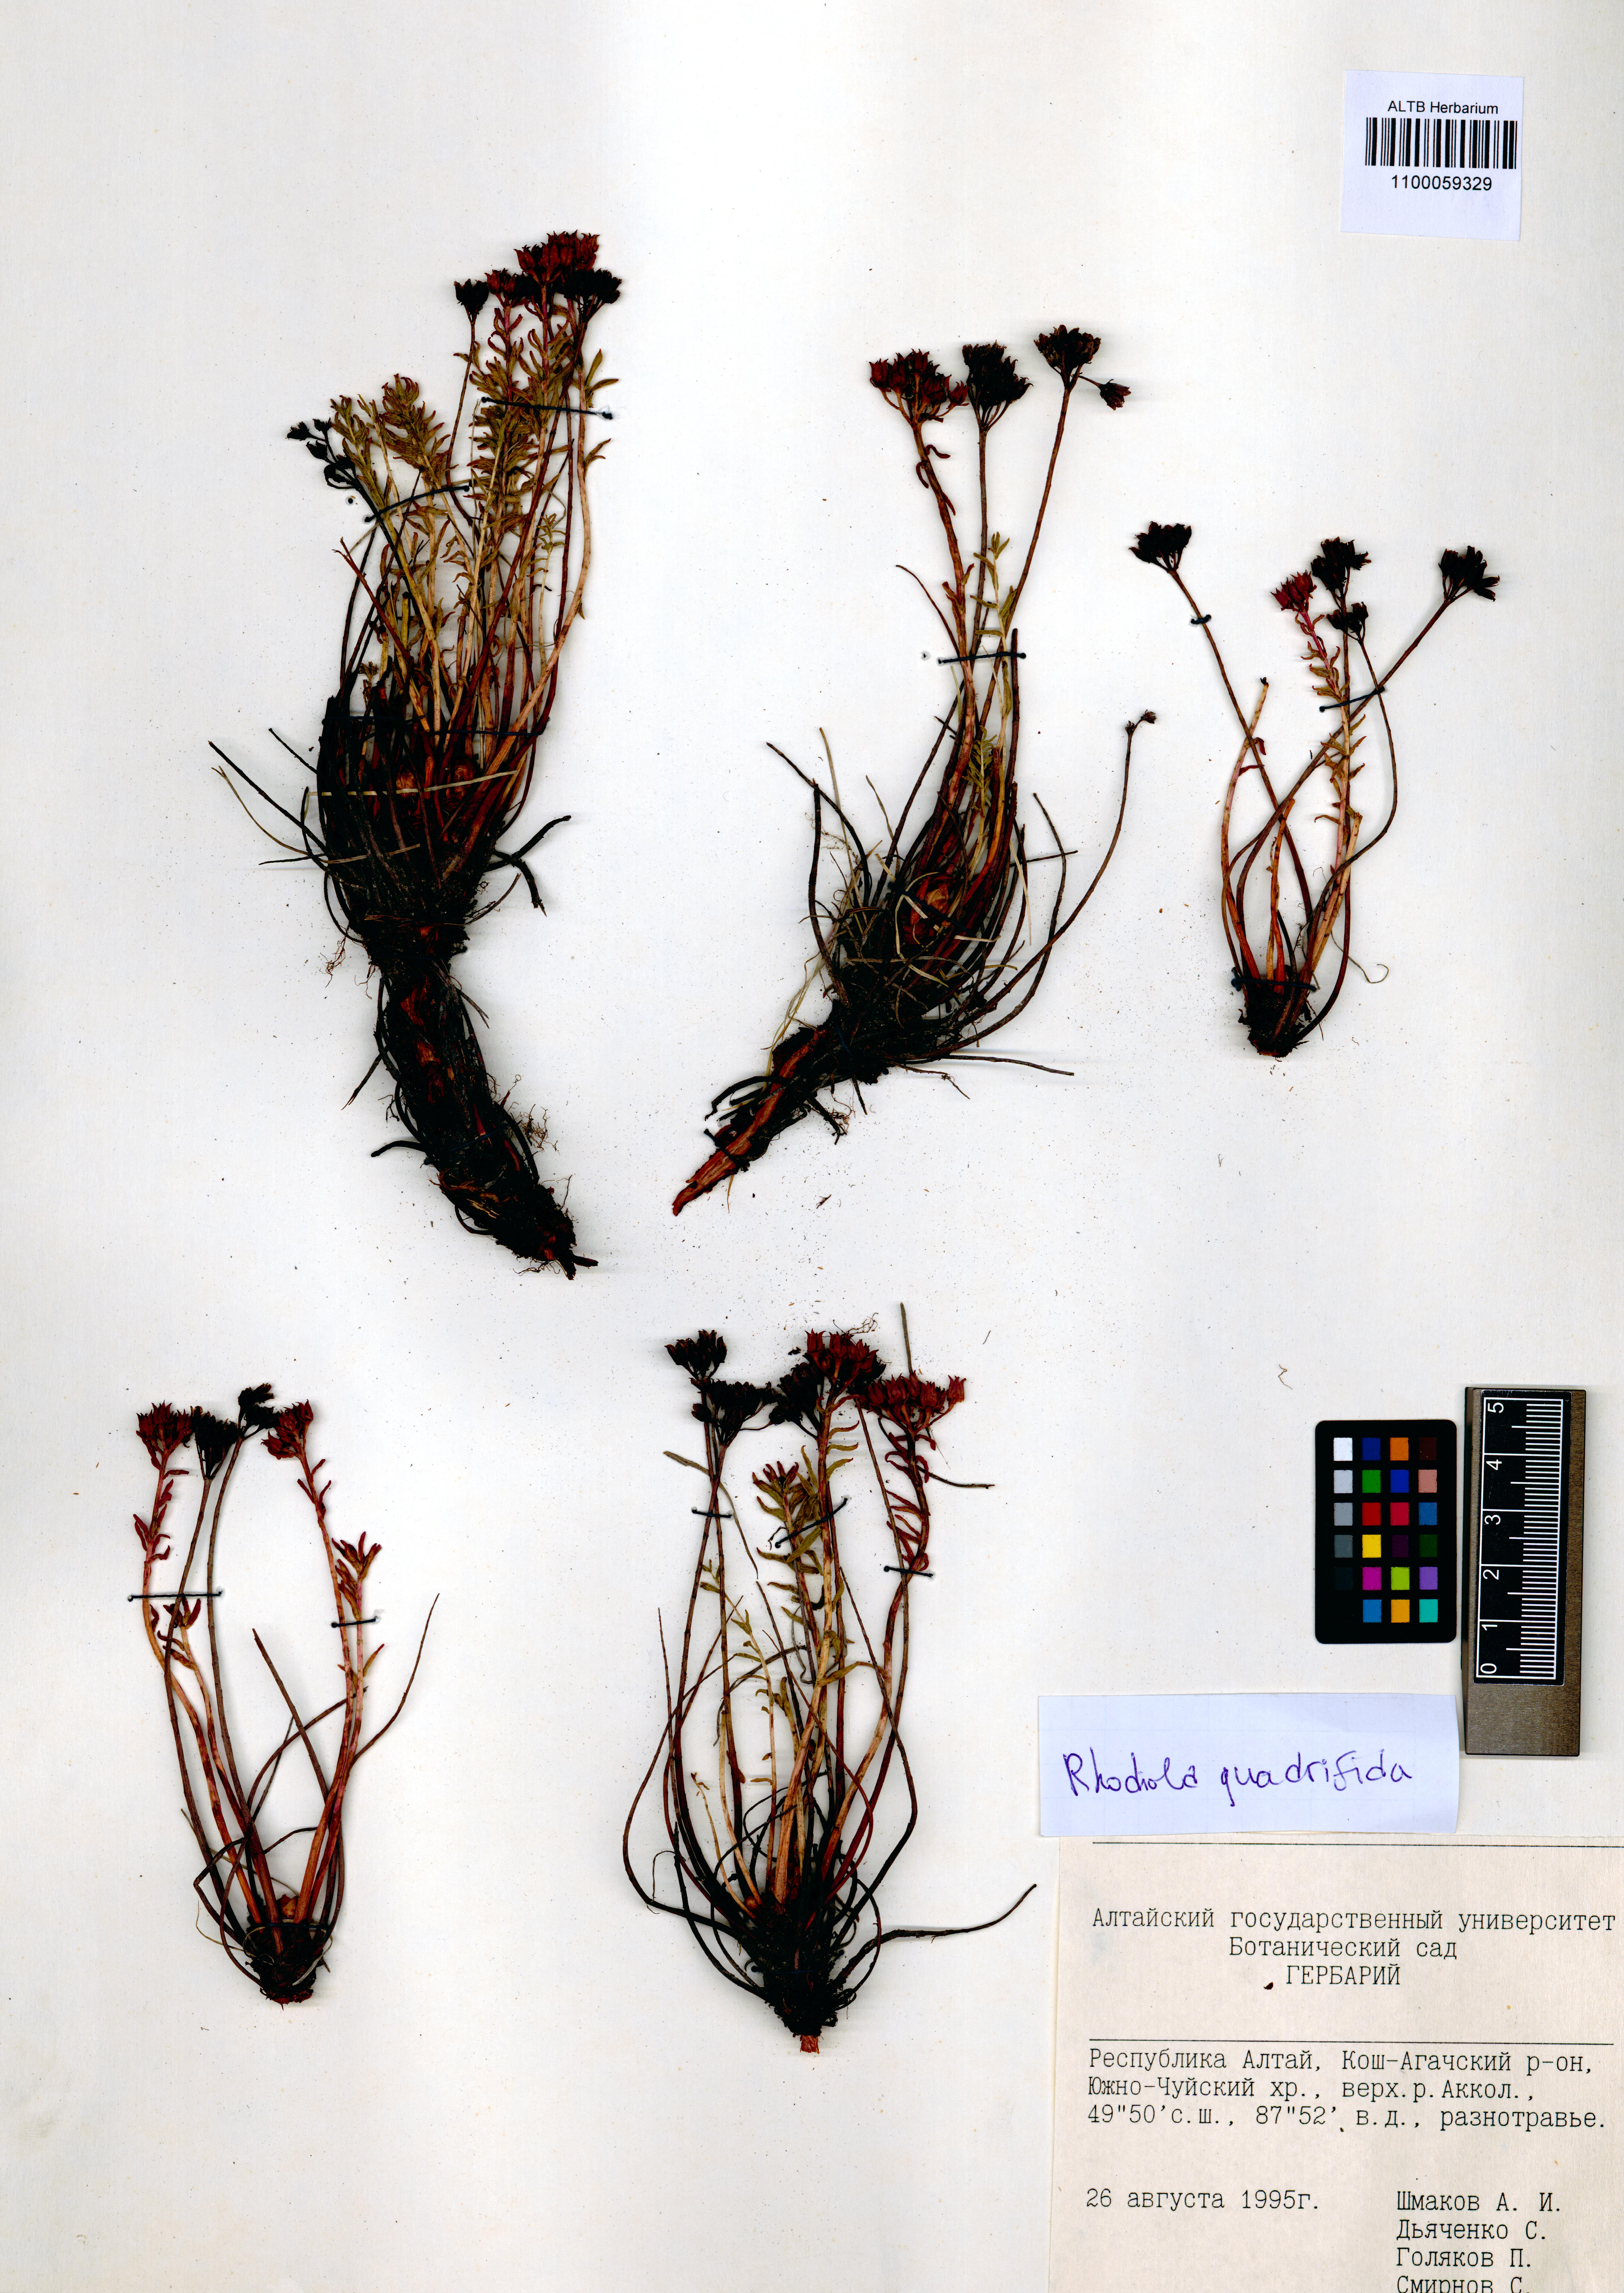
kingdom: Plantae
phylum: Tracheophyta
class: Magnoliopsida
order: Saxifragales
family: Crassulaceae
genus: Rhodiola
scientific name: Rhodiola quadrifida
